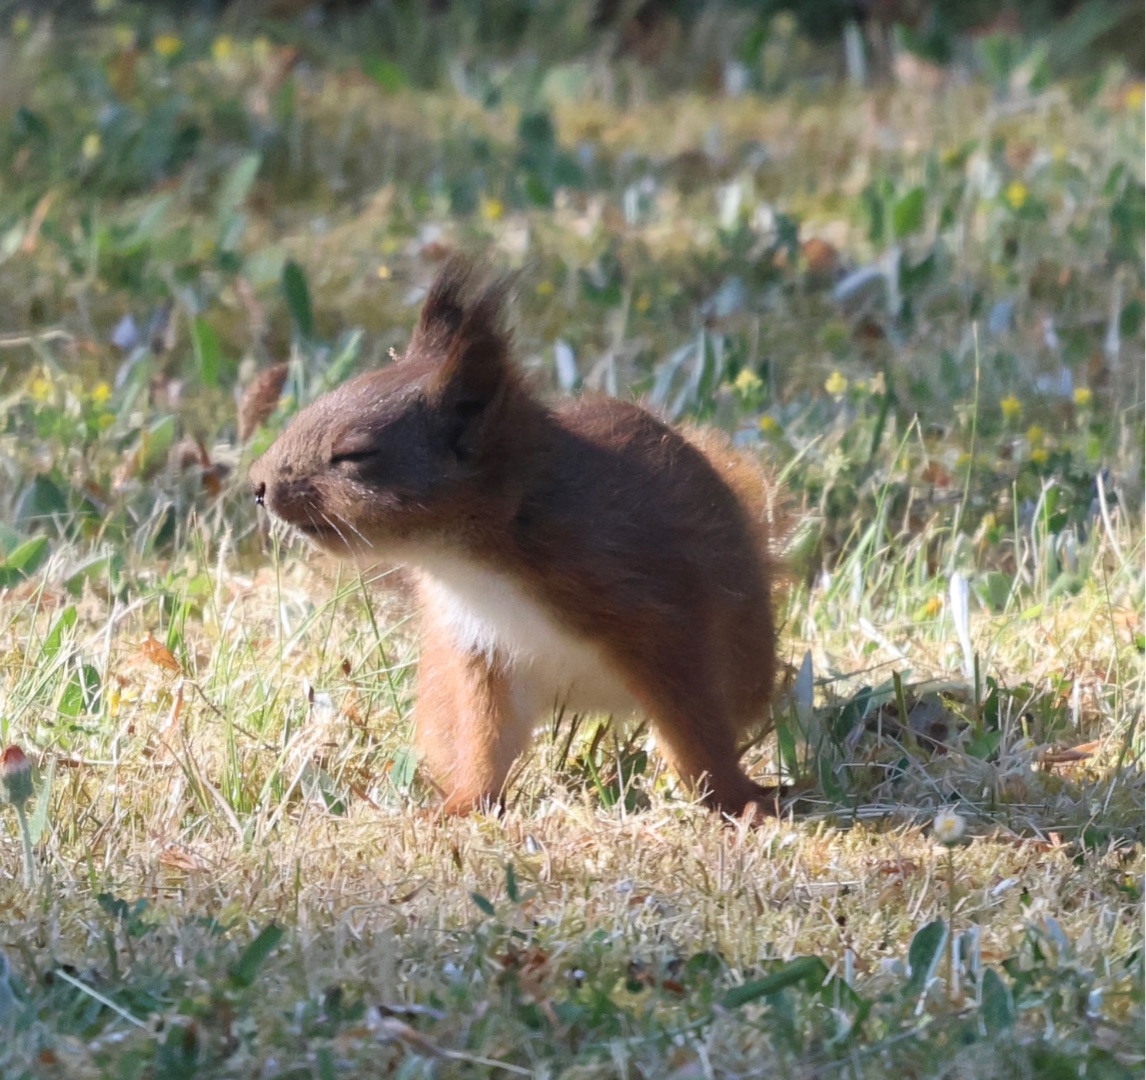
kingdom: Animalia
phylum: Chordata
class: Mammalia
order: Rodentia
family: Sciuridae
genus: Sciurus
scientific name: Sciurus vulgaris
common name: Egern
